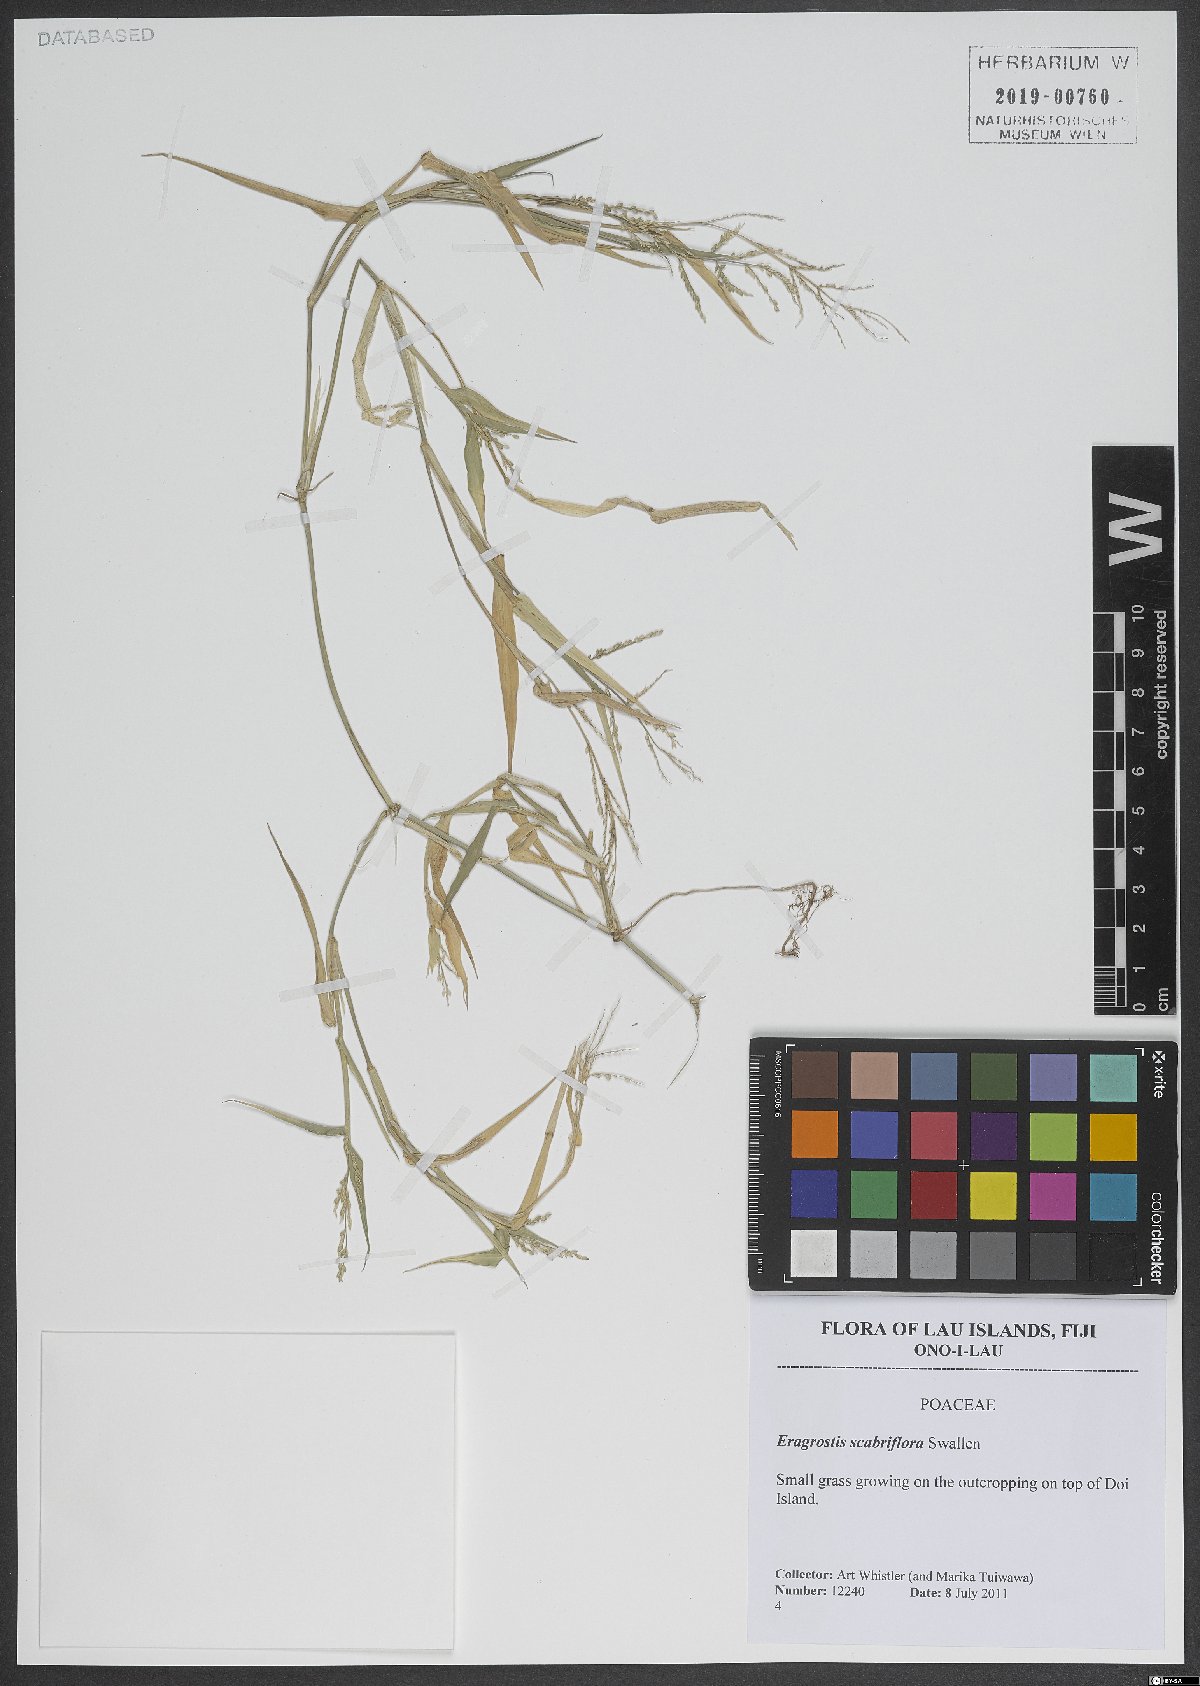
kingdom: Plantae
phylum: Tracheophyta
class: Liliopsida
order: Poales
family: Poaceae
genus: Eragrostis
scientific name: Eragrostis scabriflora
